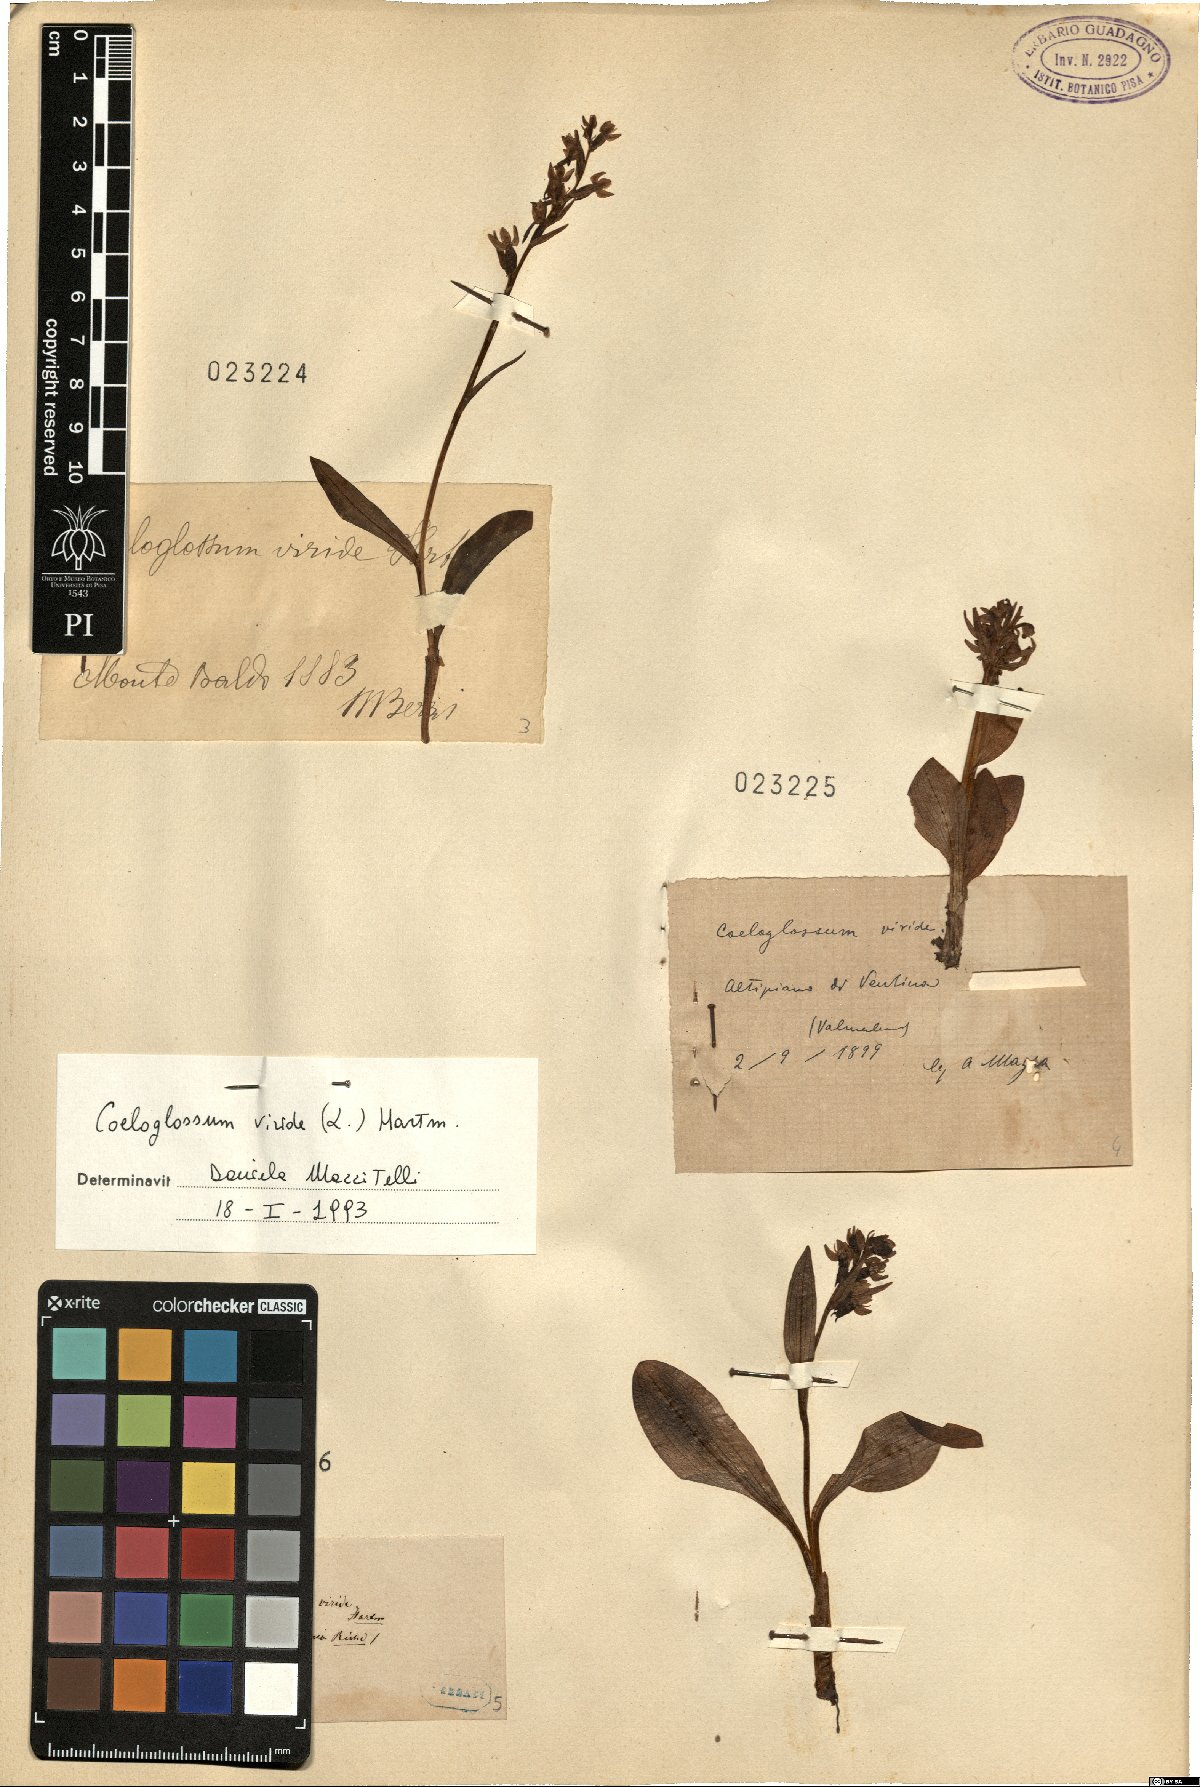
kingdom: Plantae
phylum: Tracheophyta
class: Liliopsida
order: Asparagales
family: Orchidaceae
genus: Dactylorhiza
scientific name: Dactylorhiza viridis
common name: Longbract frog orchid
